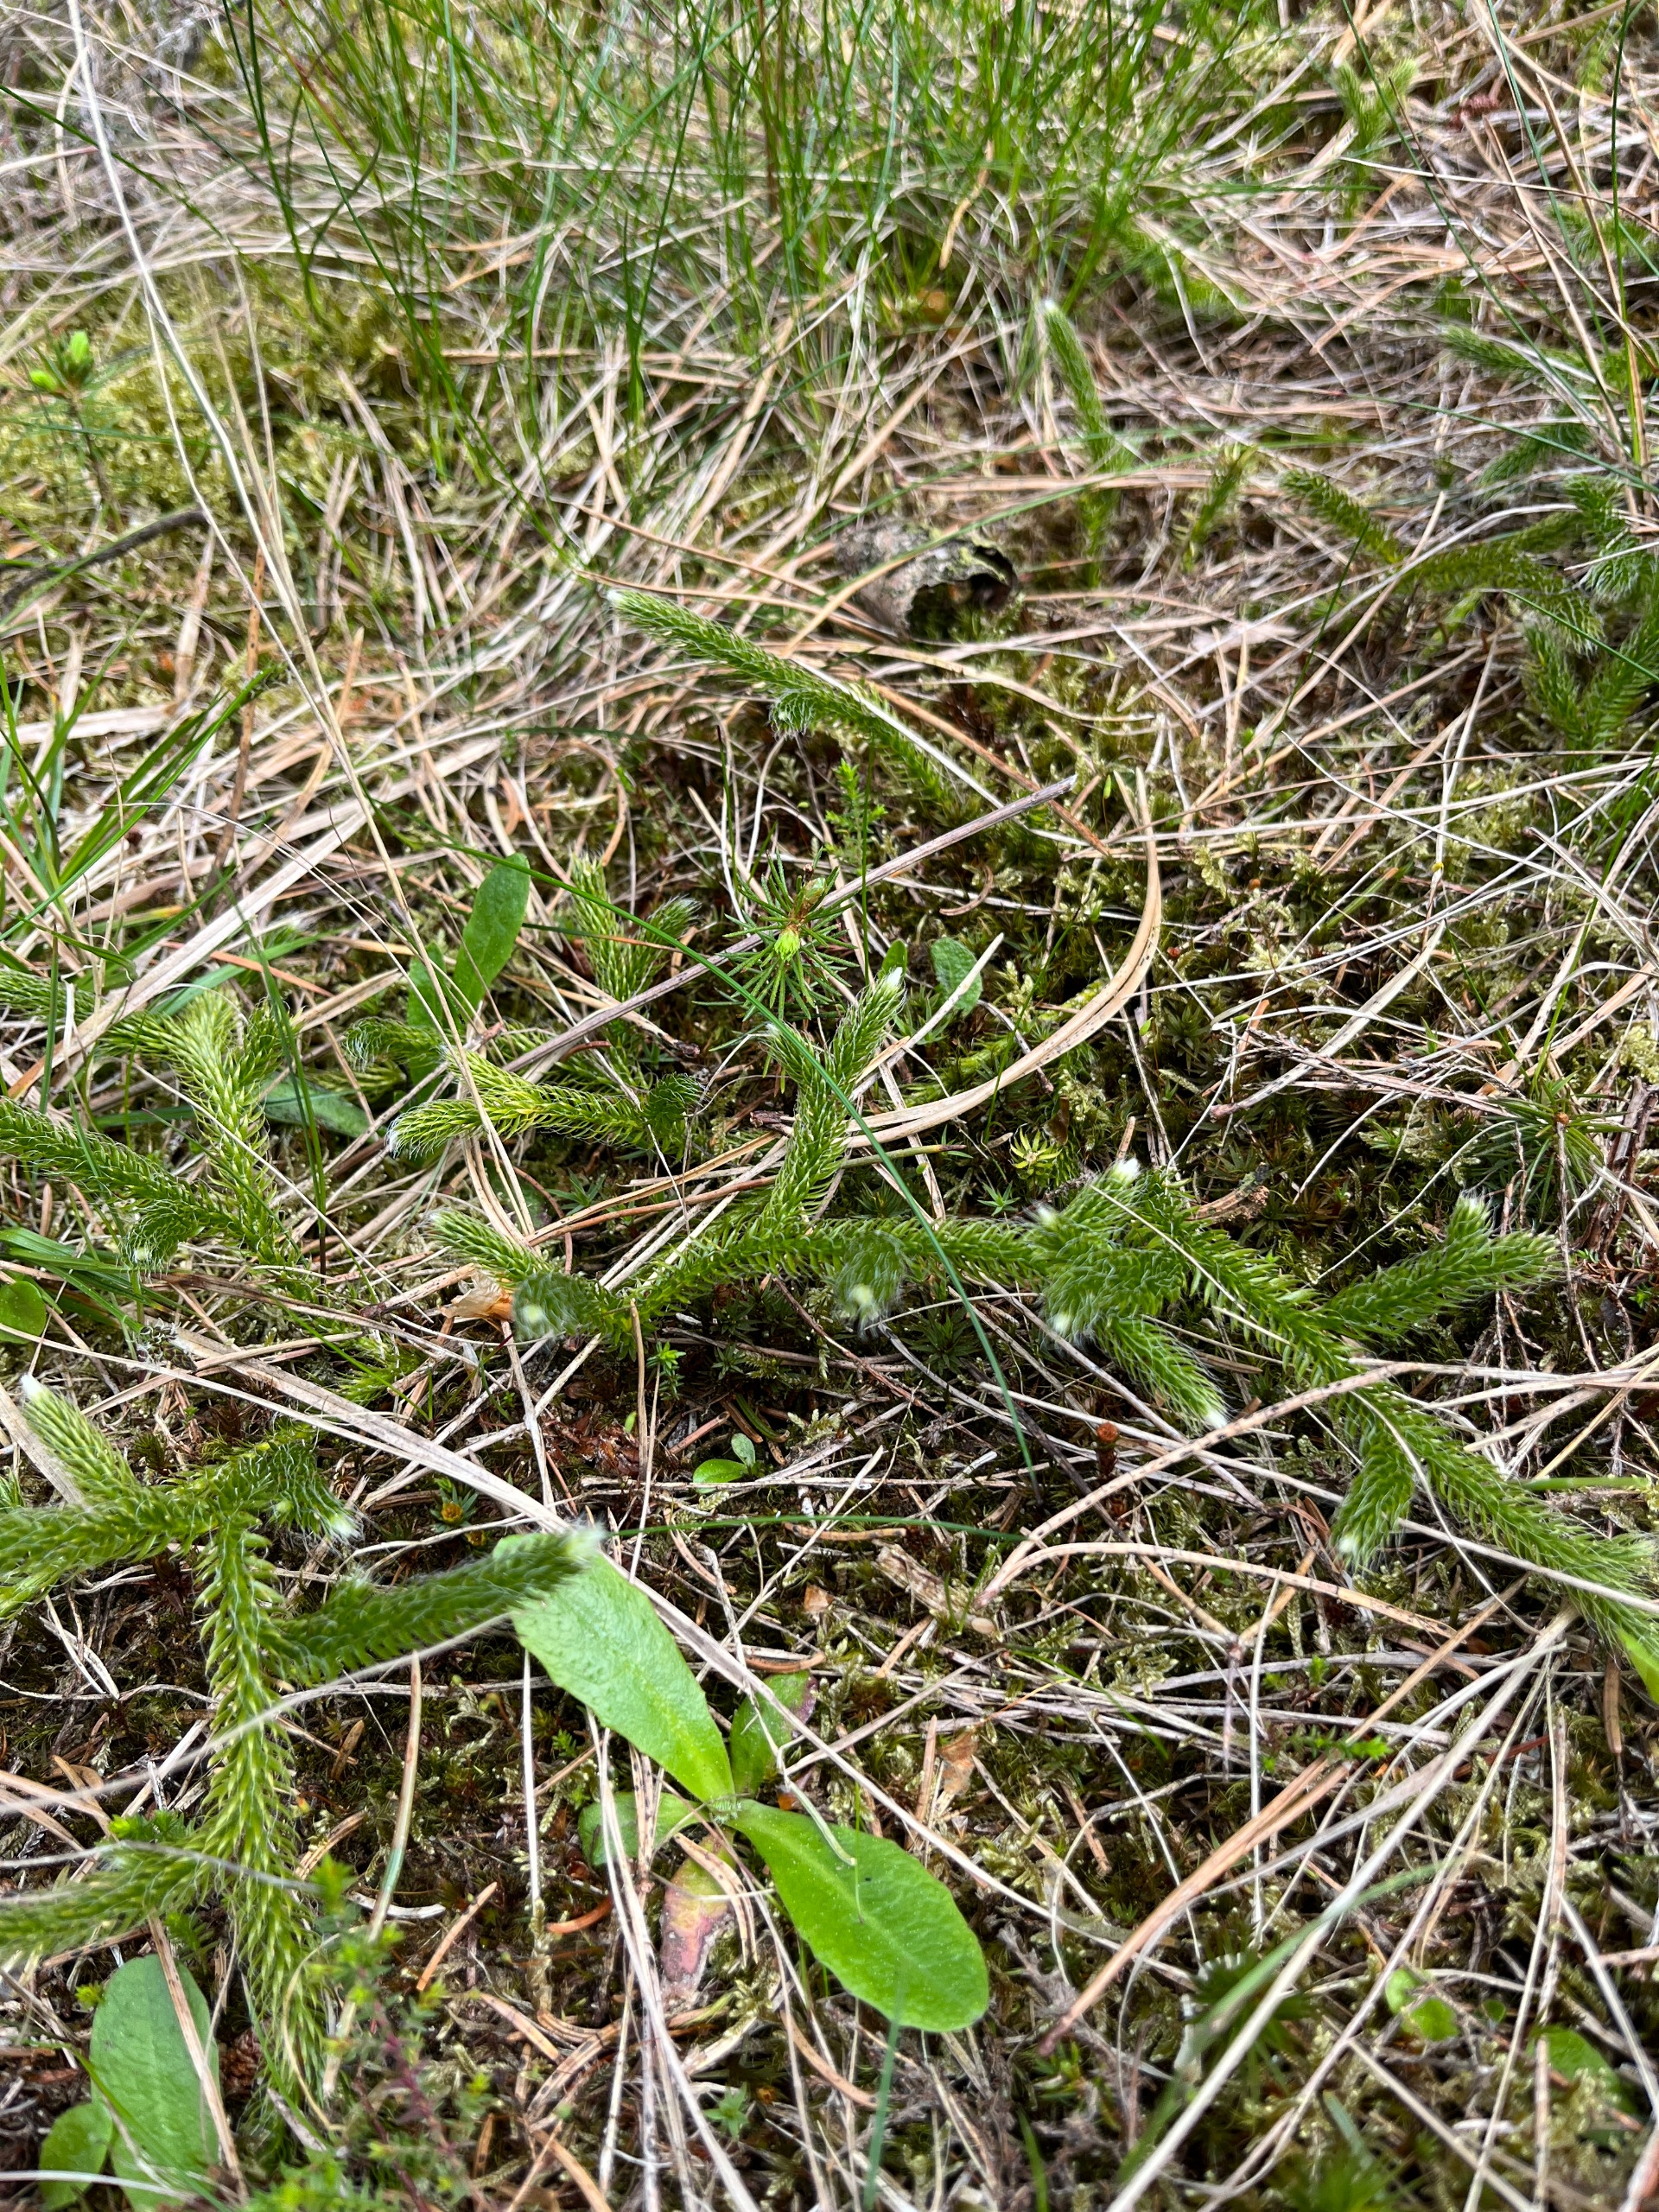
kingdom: Plantae
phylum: Tracheophyta
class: Lycopodiopsida
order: Lycopodiales
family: Lycopodiaceae
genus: Lycopodium
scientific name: Lycopodium clavatum
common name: Almindelig ulvefod
